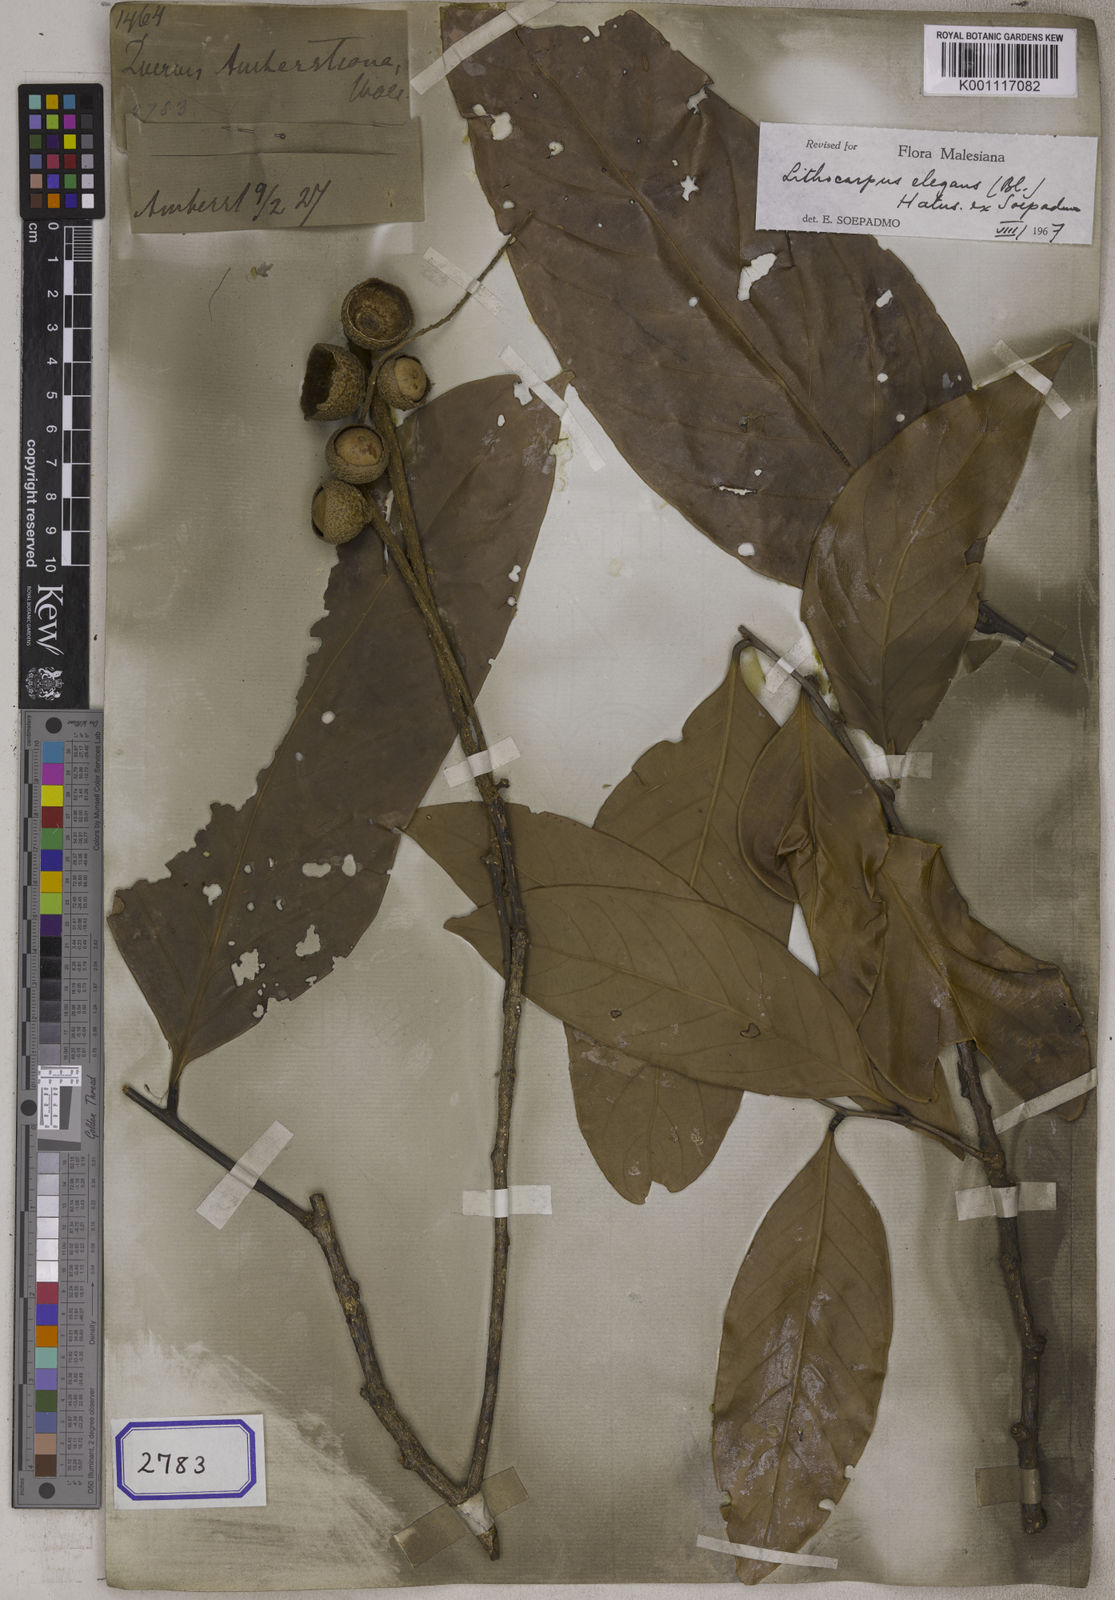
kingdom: Plantae
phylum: Tracheophyta
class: Magnoliopsida
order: Fagales
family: Fagaceae
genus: Quercus
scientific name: Quercus
